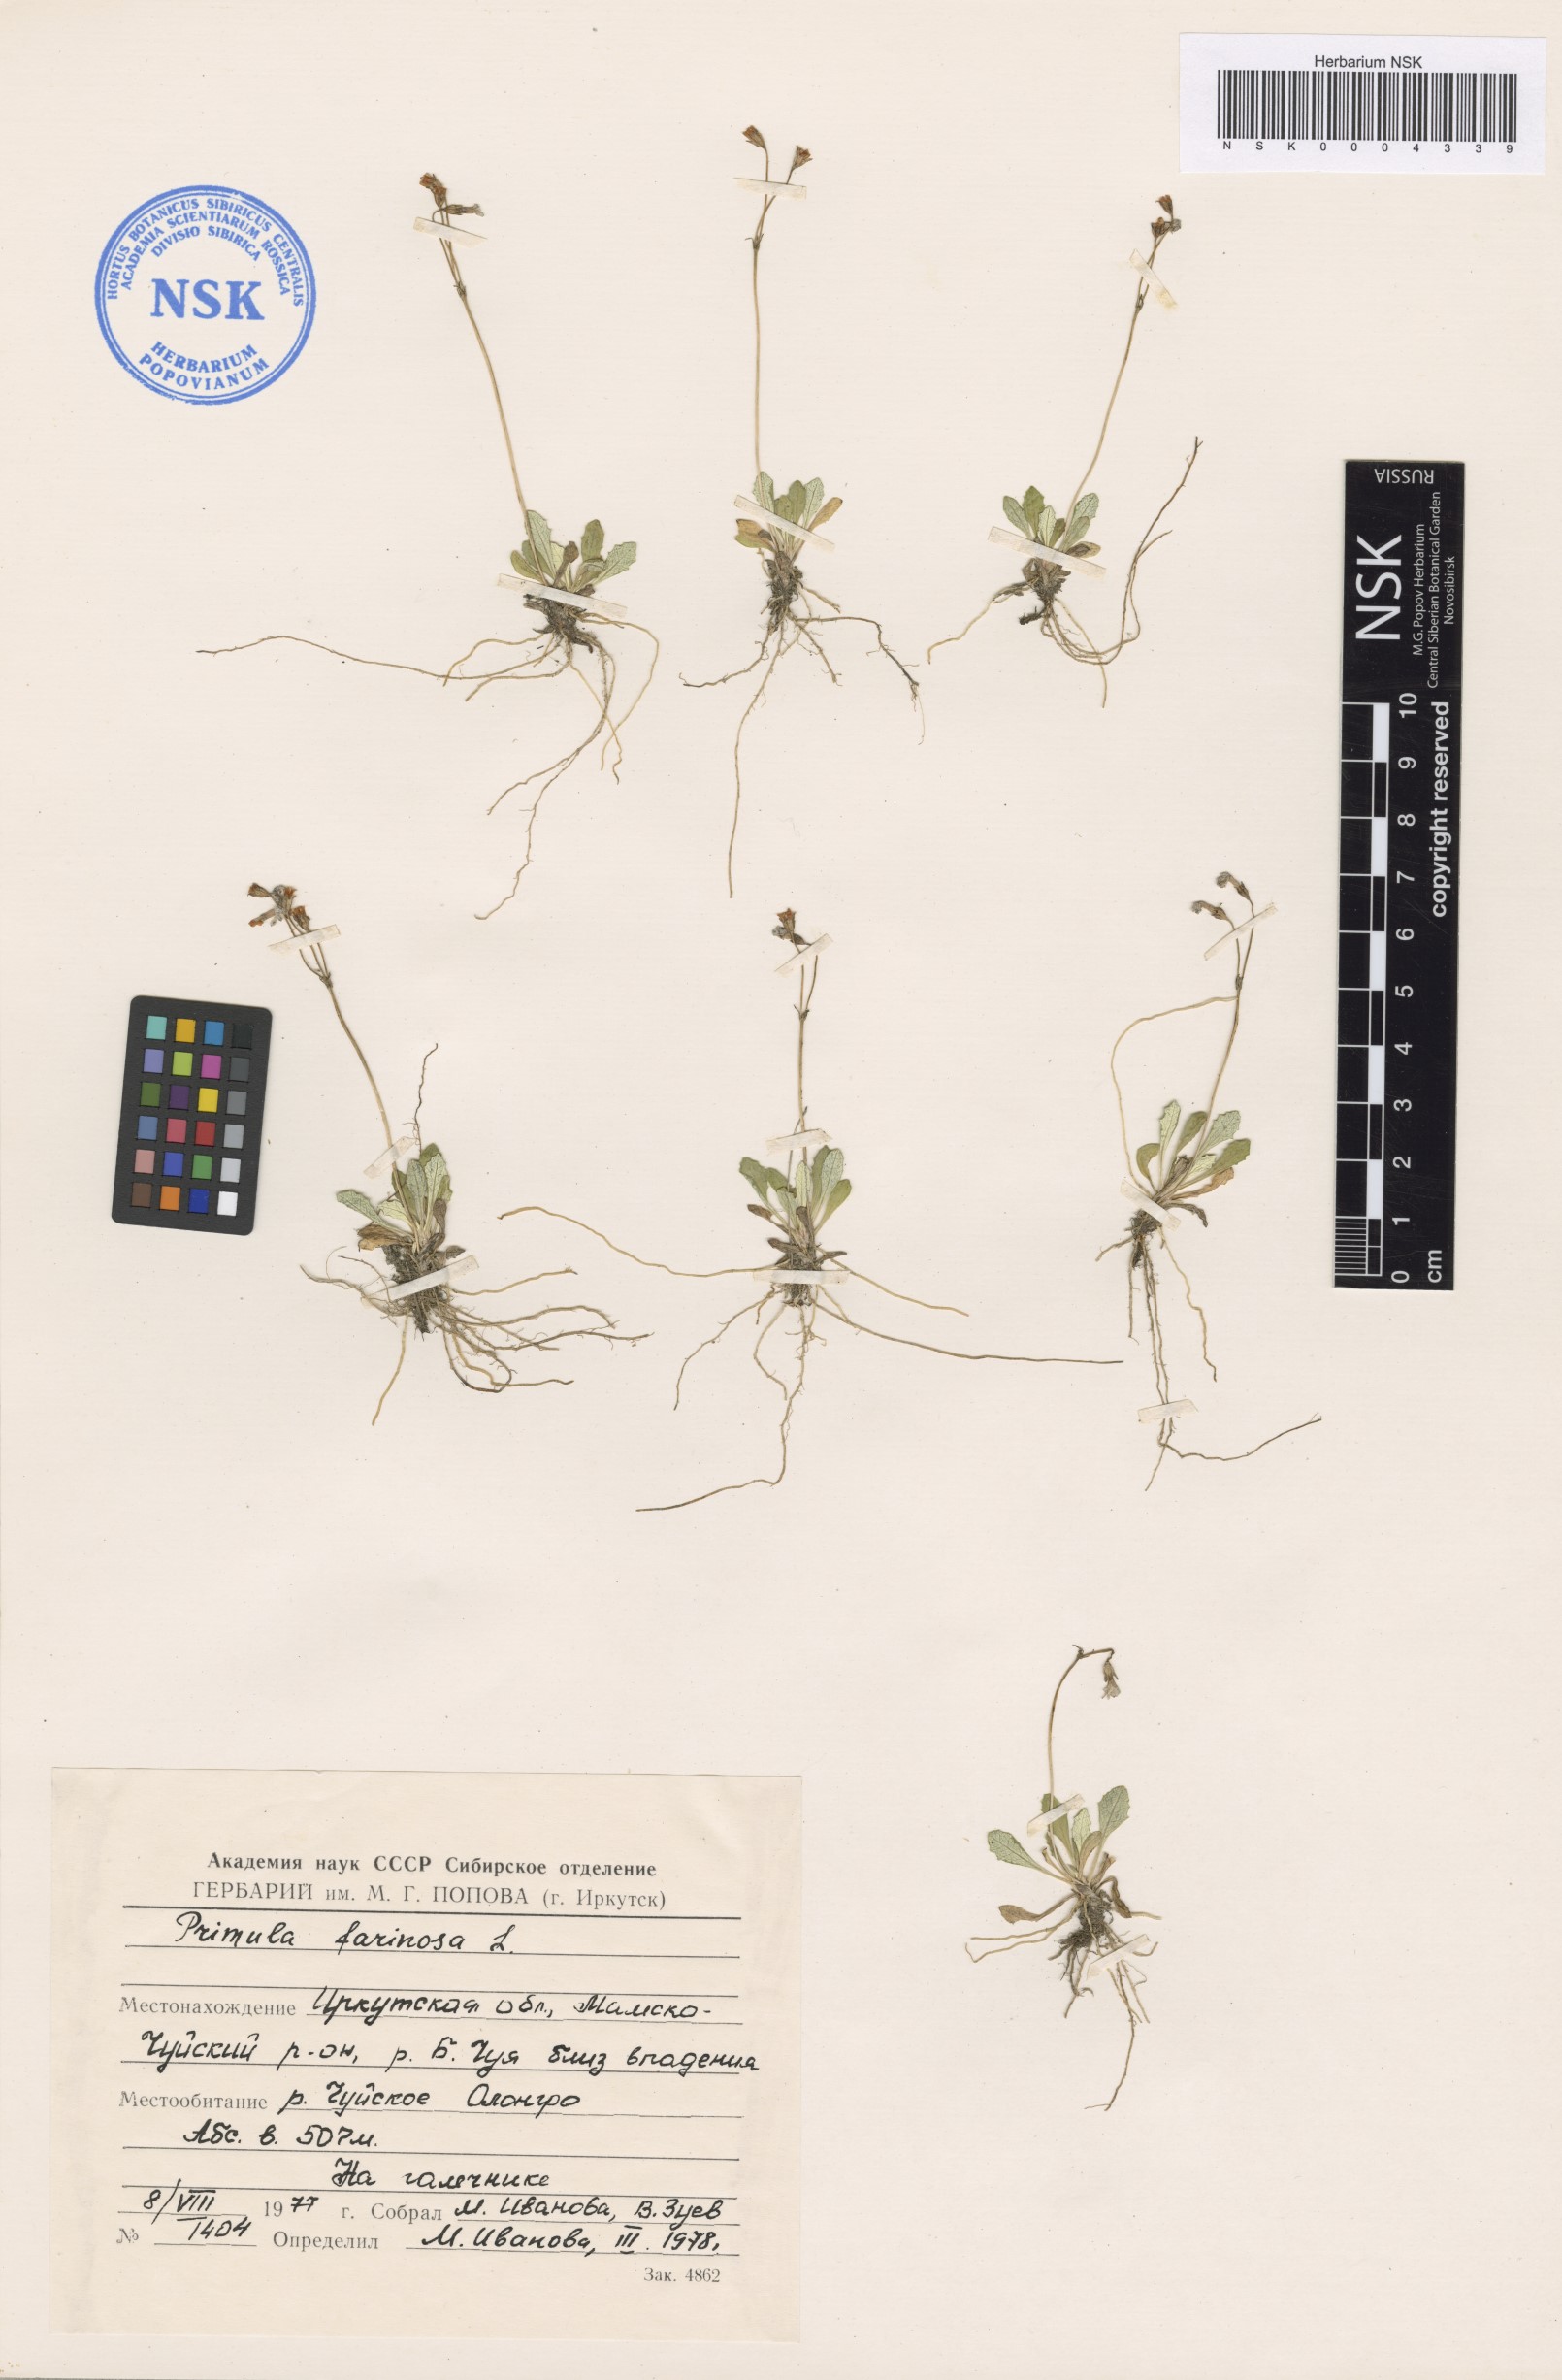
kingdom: Plantae
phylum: Tracheophyta
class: Magnoliopsida
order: Ericales
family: Primulaceae
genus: Primula
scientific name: Primula farinosa
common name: Bird's-eye primrose
